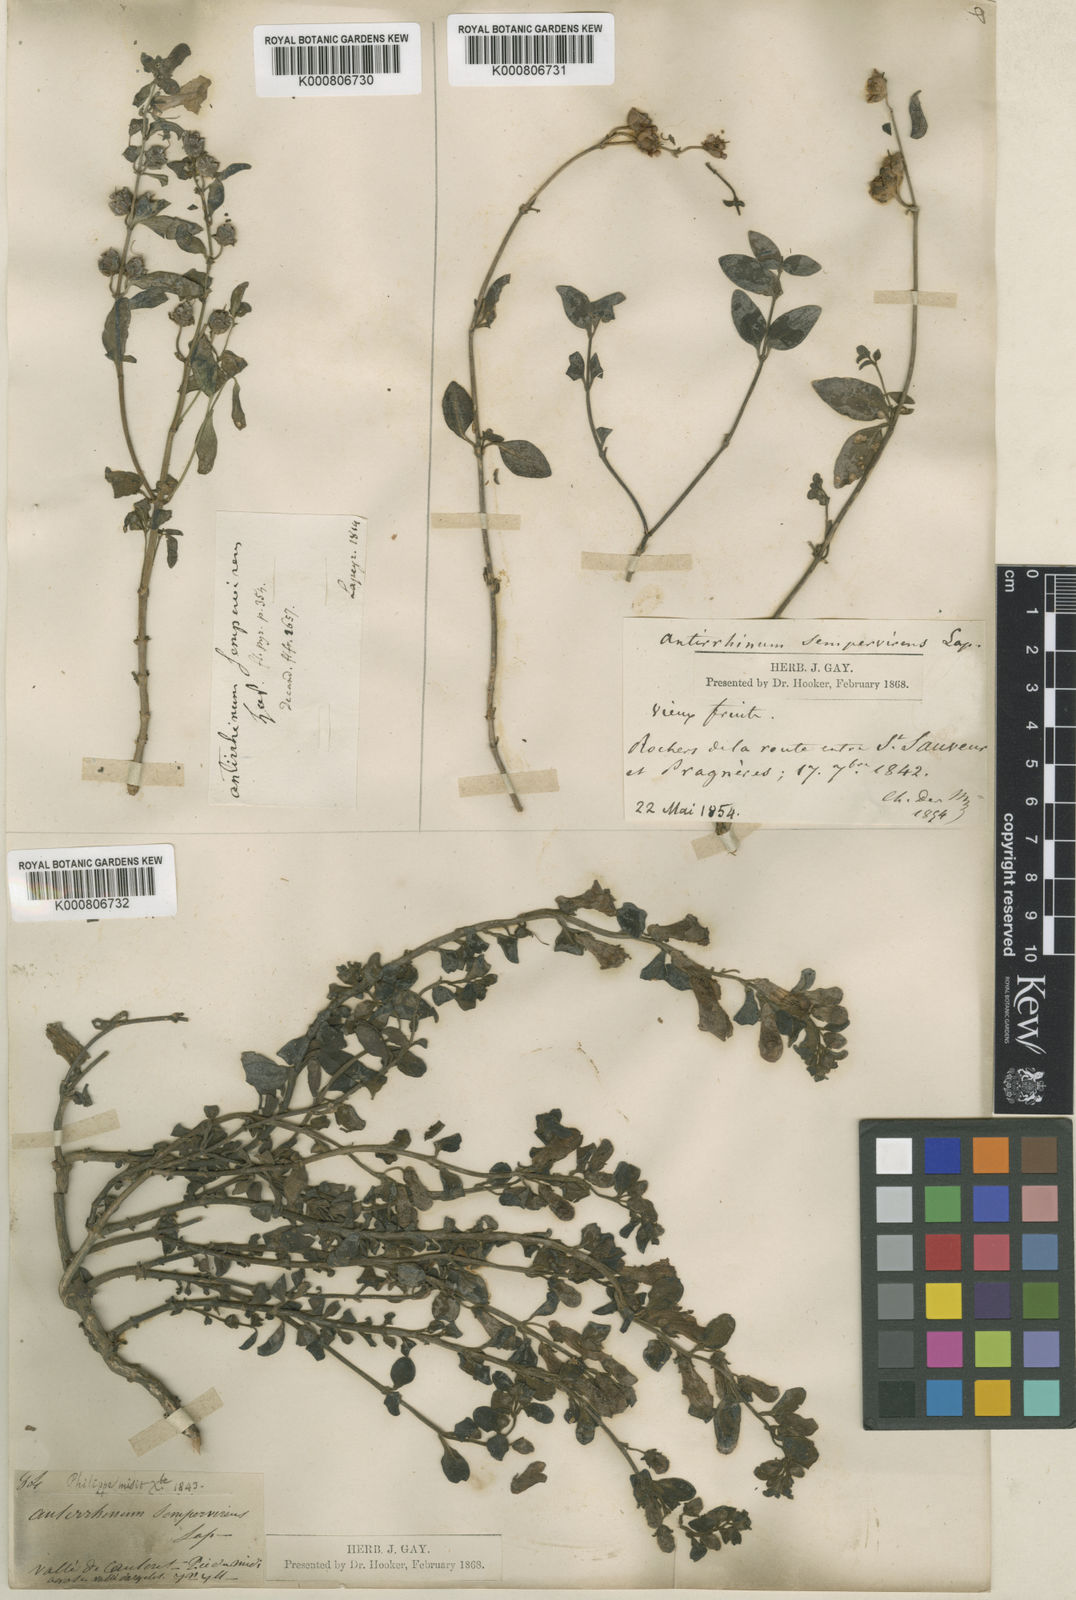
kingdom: Plantae
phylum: Tracheophyta
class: Magnoliopsida
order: Lamiales
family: Plantaginaceae
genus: Antirrhinum
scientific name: Antirrhinum sempervirens
